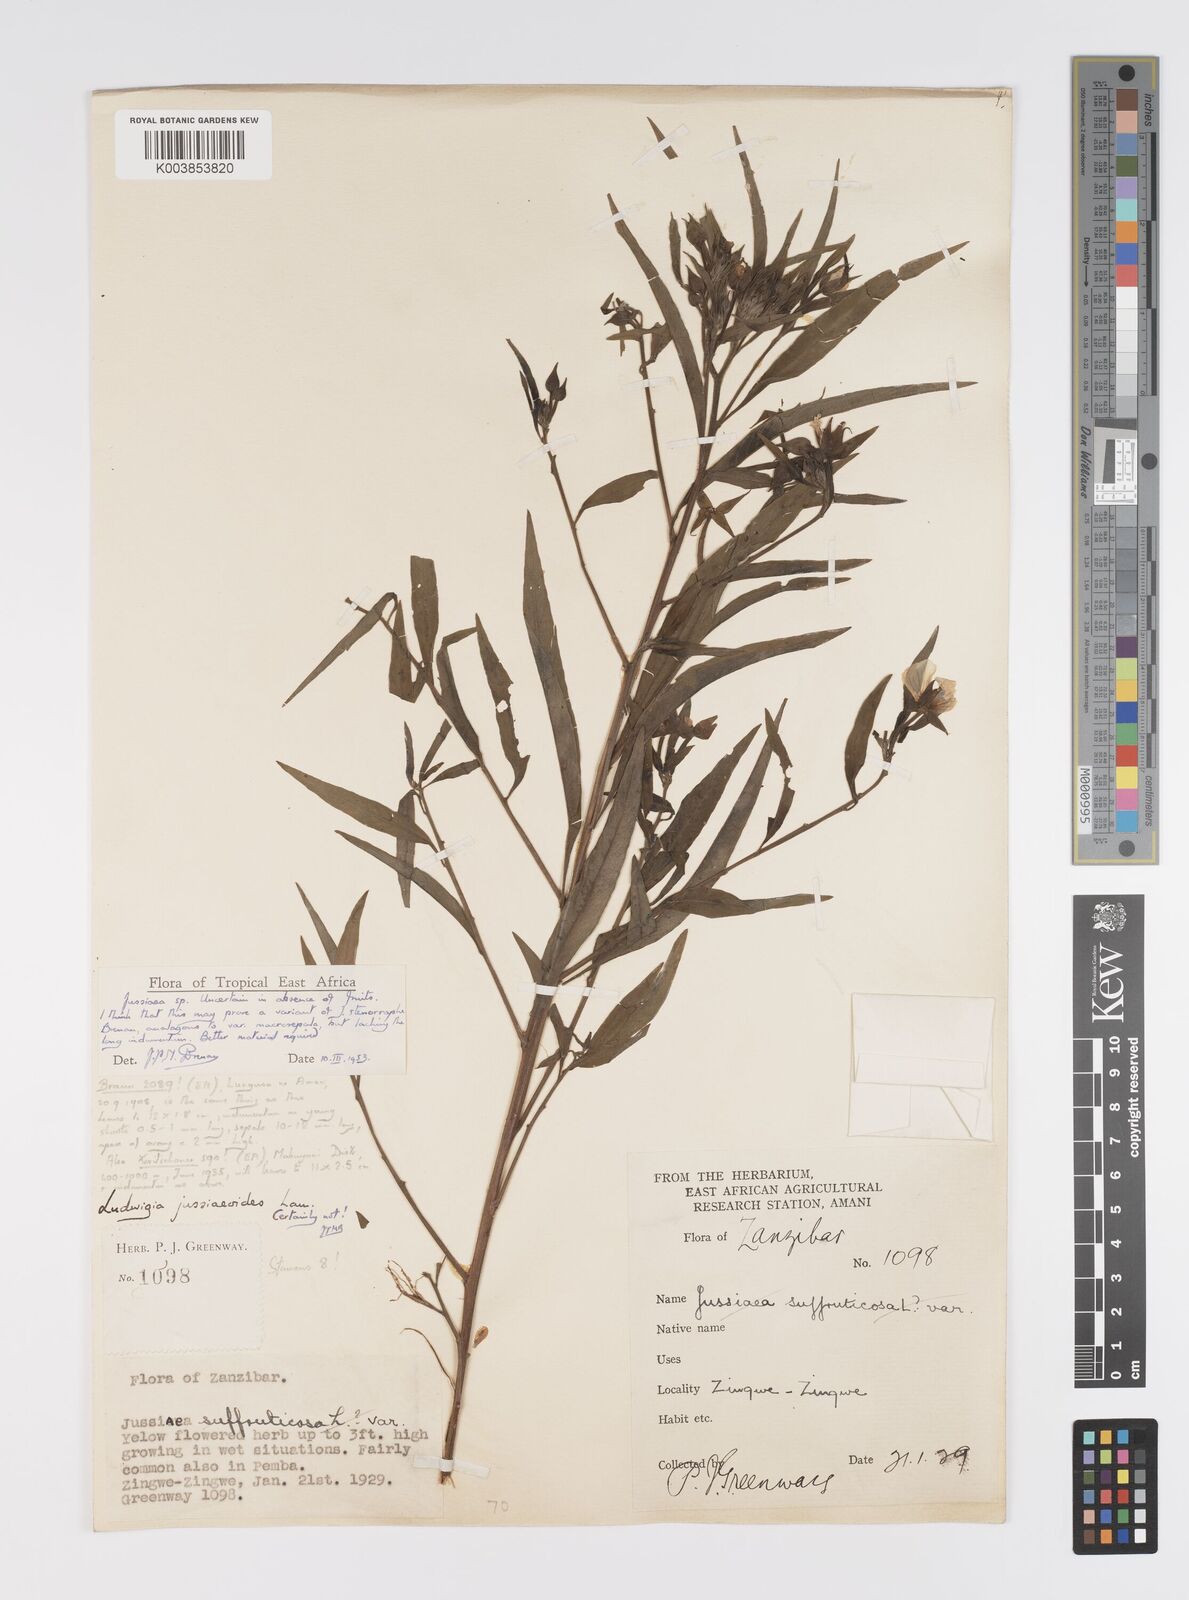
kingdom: Plantae
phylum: Tracheophyta
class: Magnoliopsida
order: Myrtales
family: Onagraceae
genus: Ludwigia
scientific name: Ludwigia
